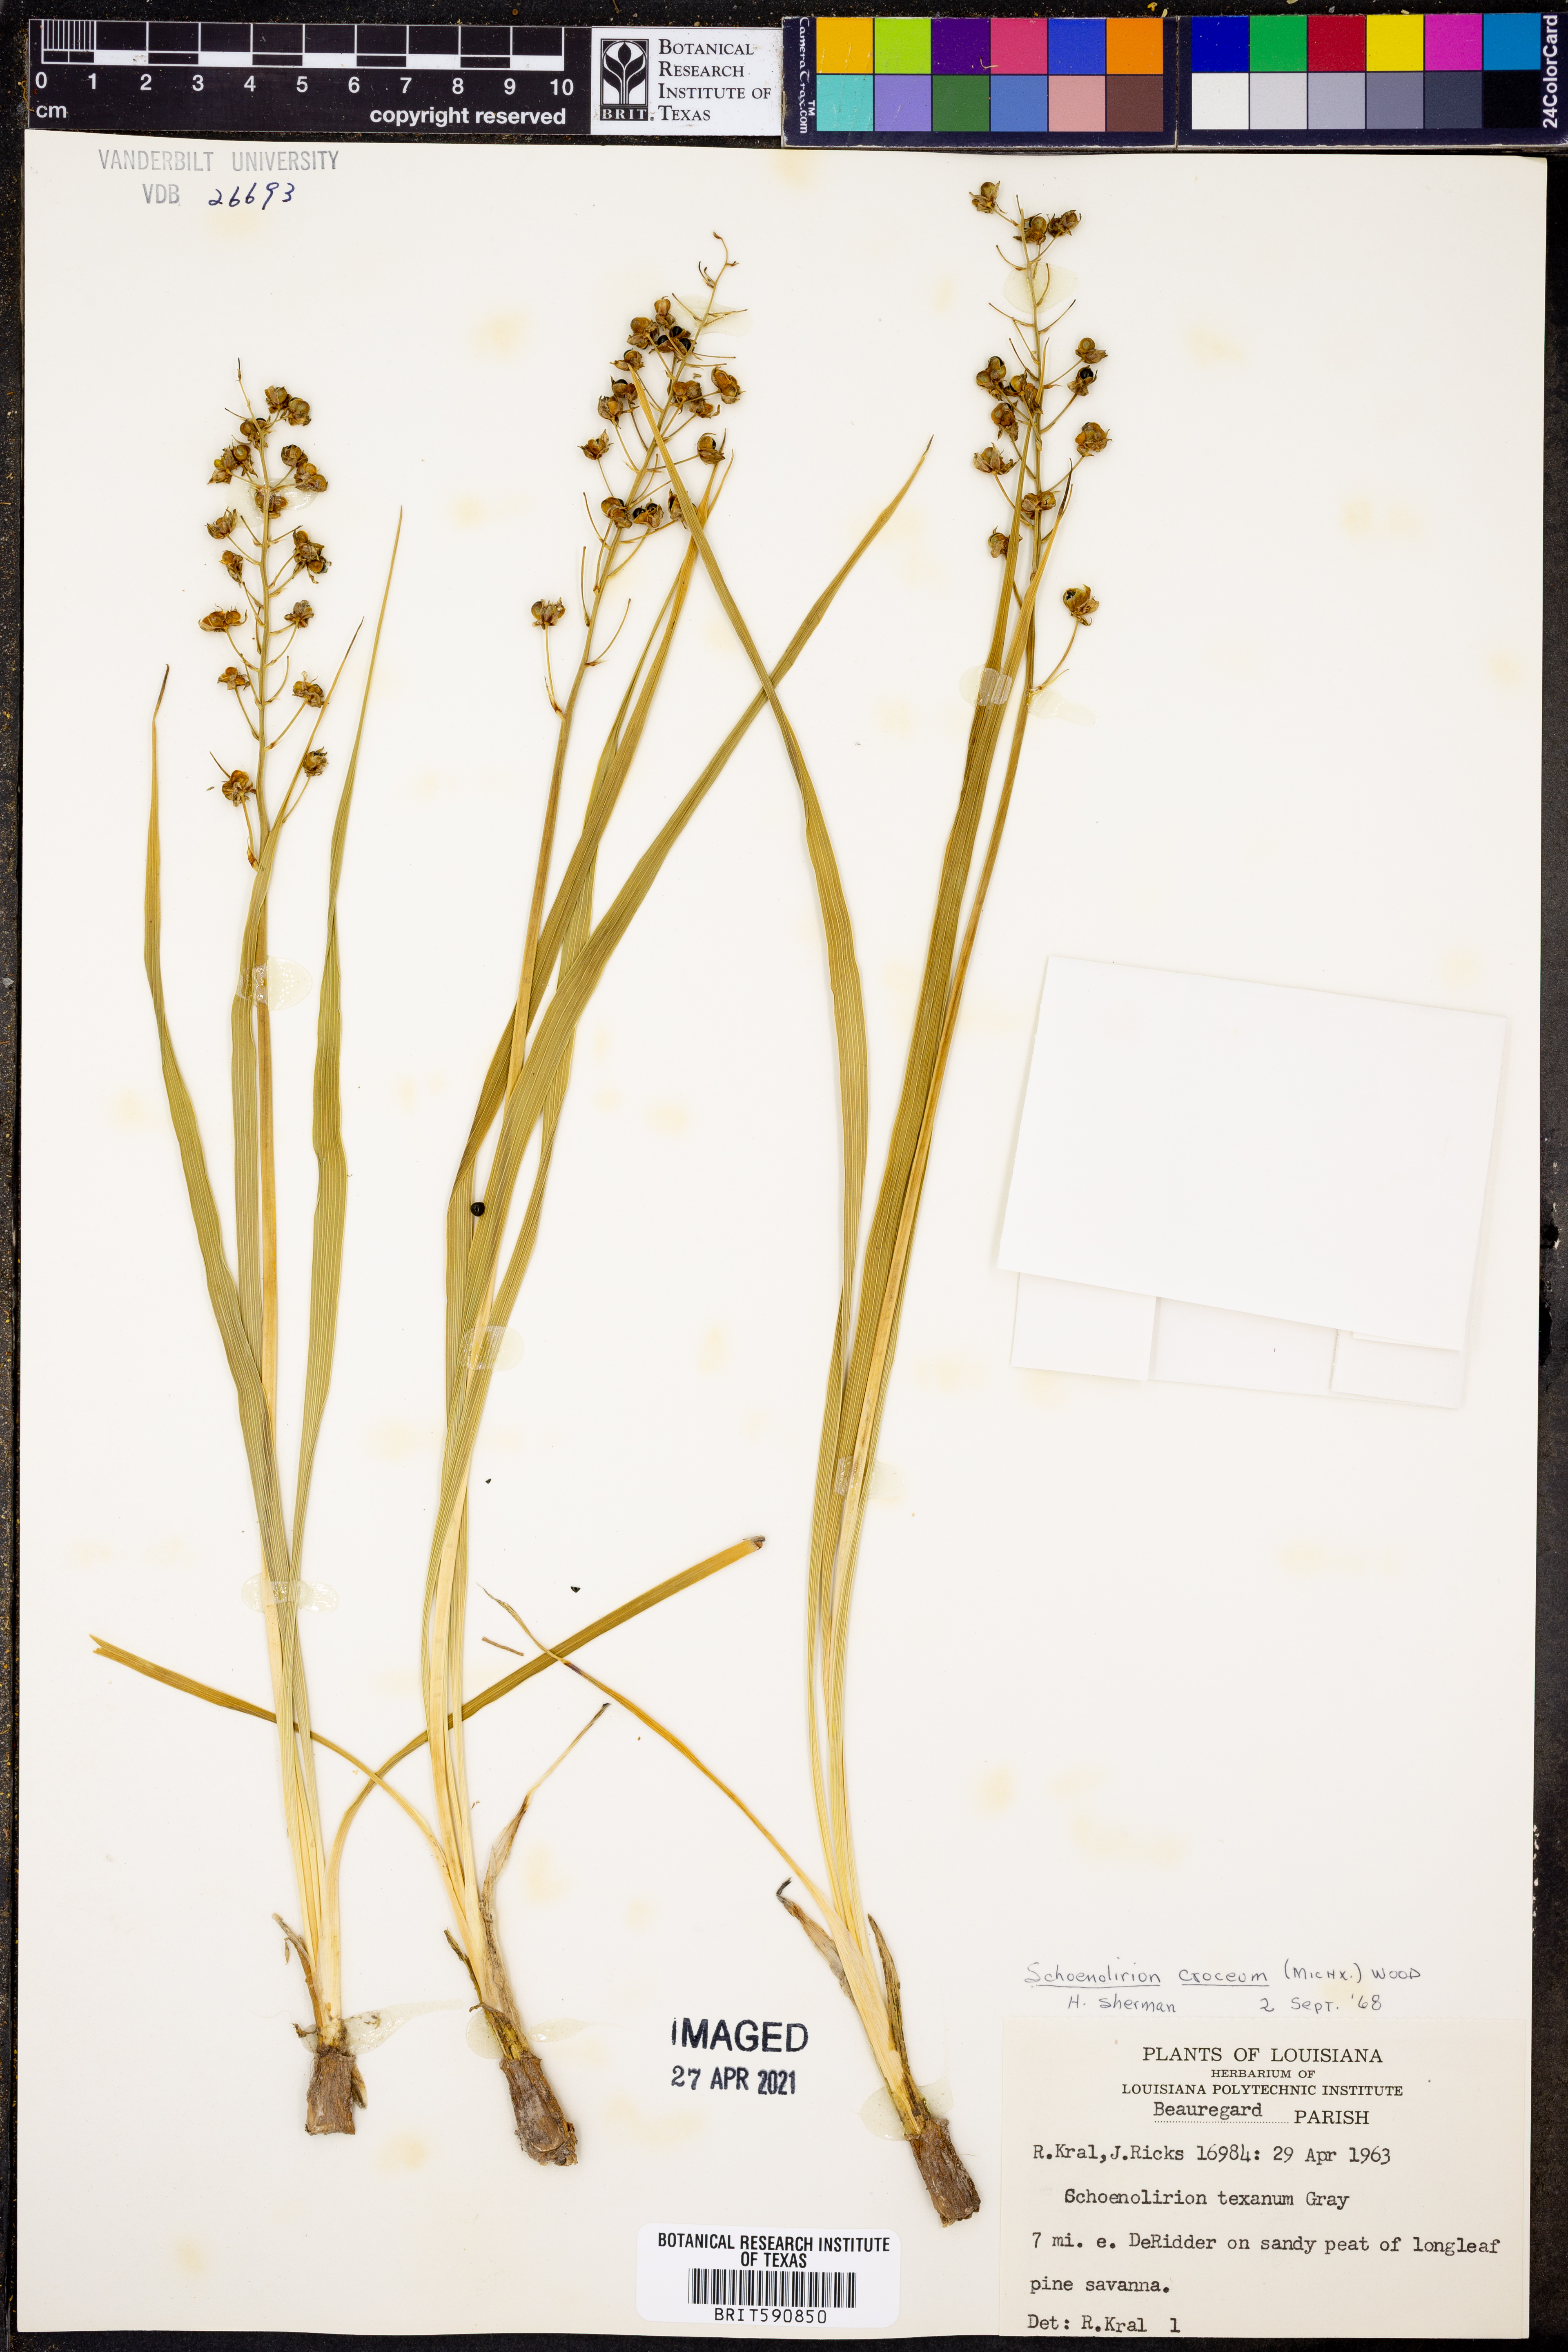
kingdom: Plantae
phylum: Tracheophyta
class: Liliopsida
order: Asparagales
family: Asparagaceae
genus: Schoenolirion
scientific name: Schoenolirion croceum
